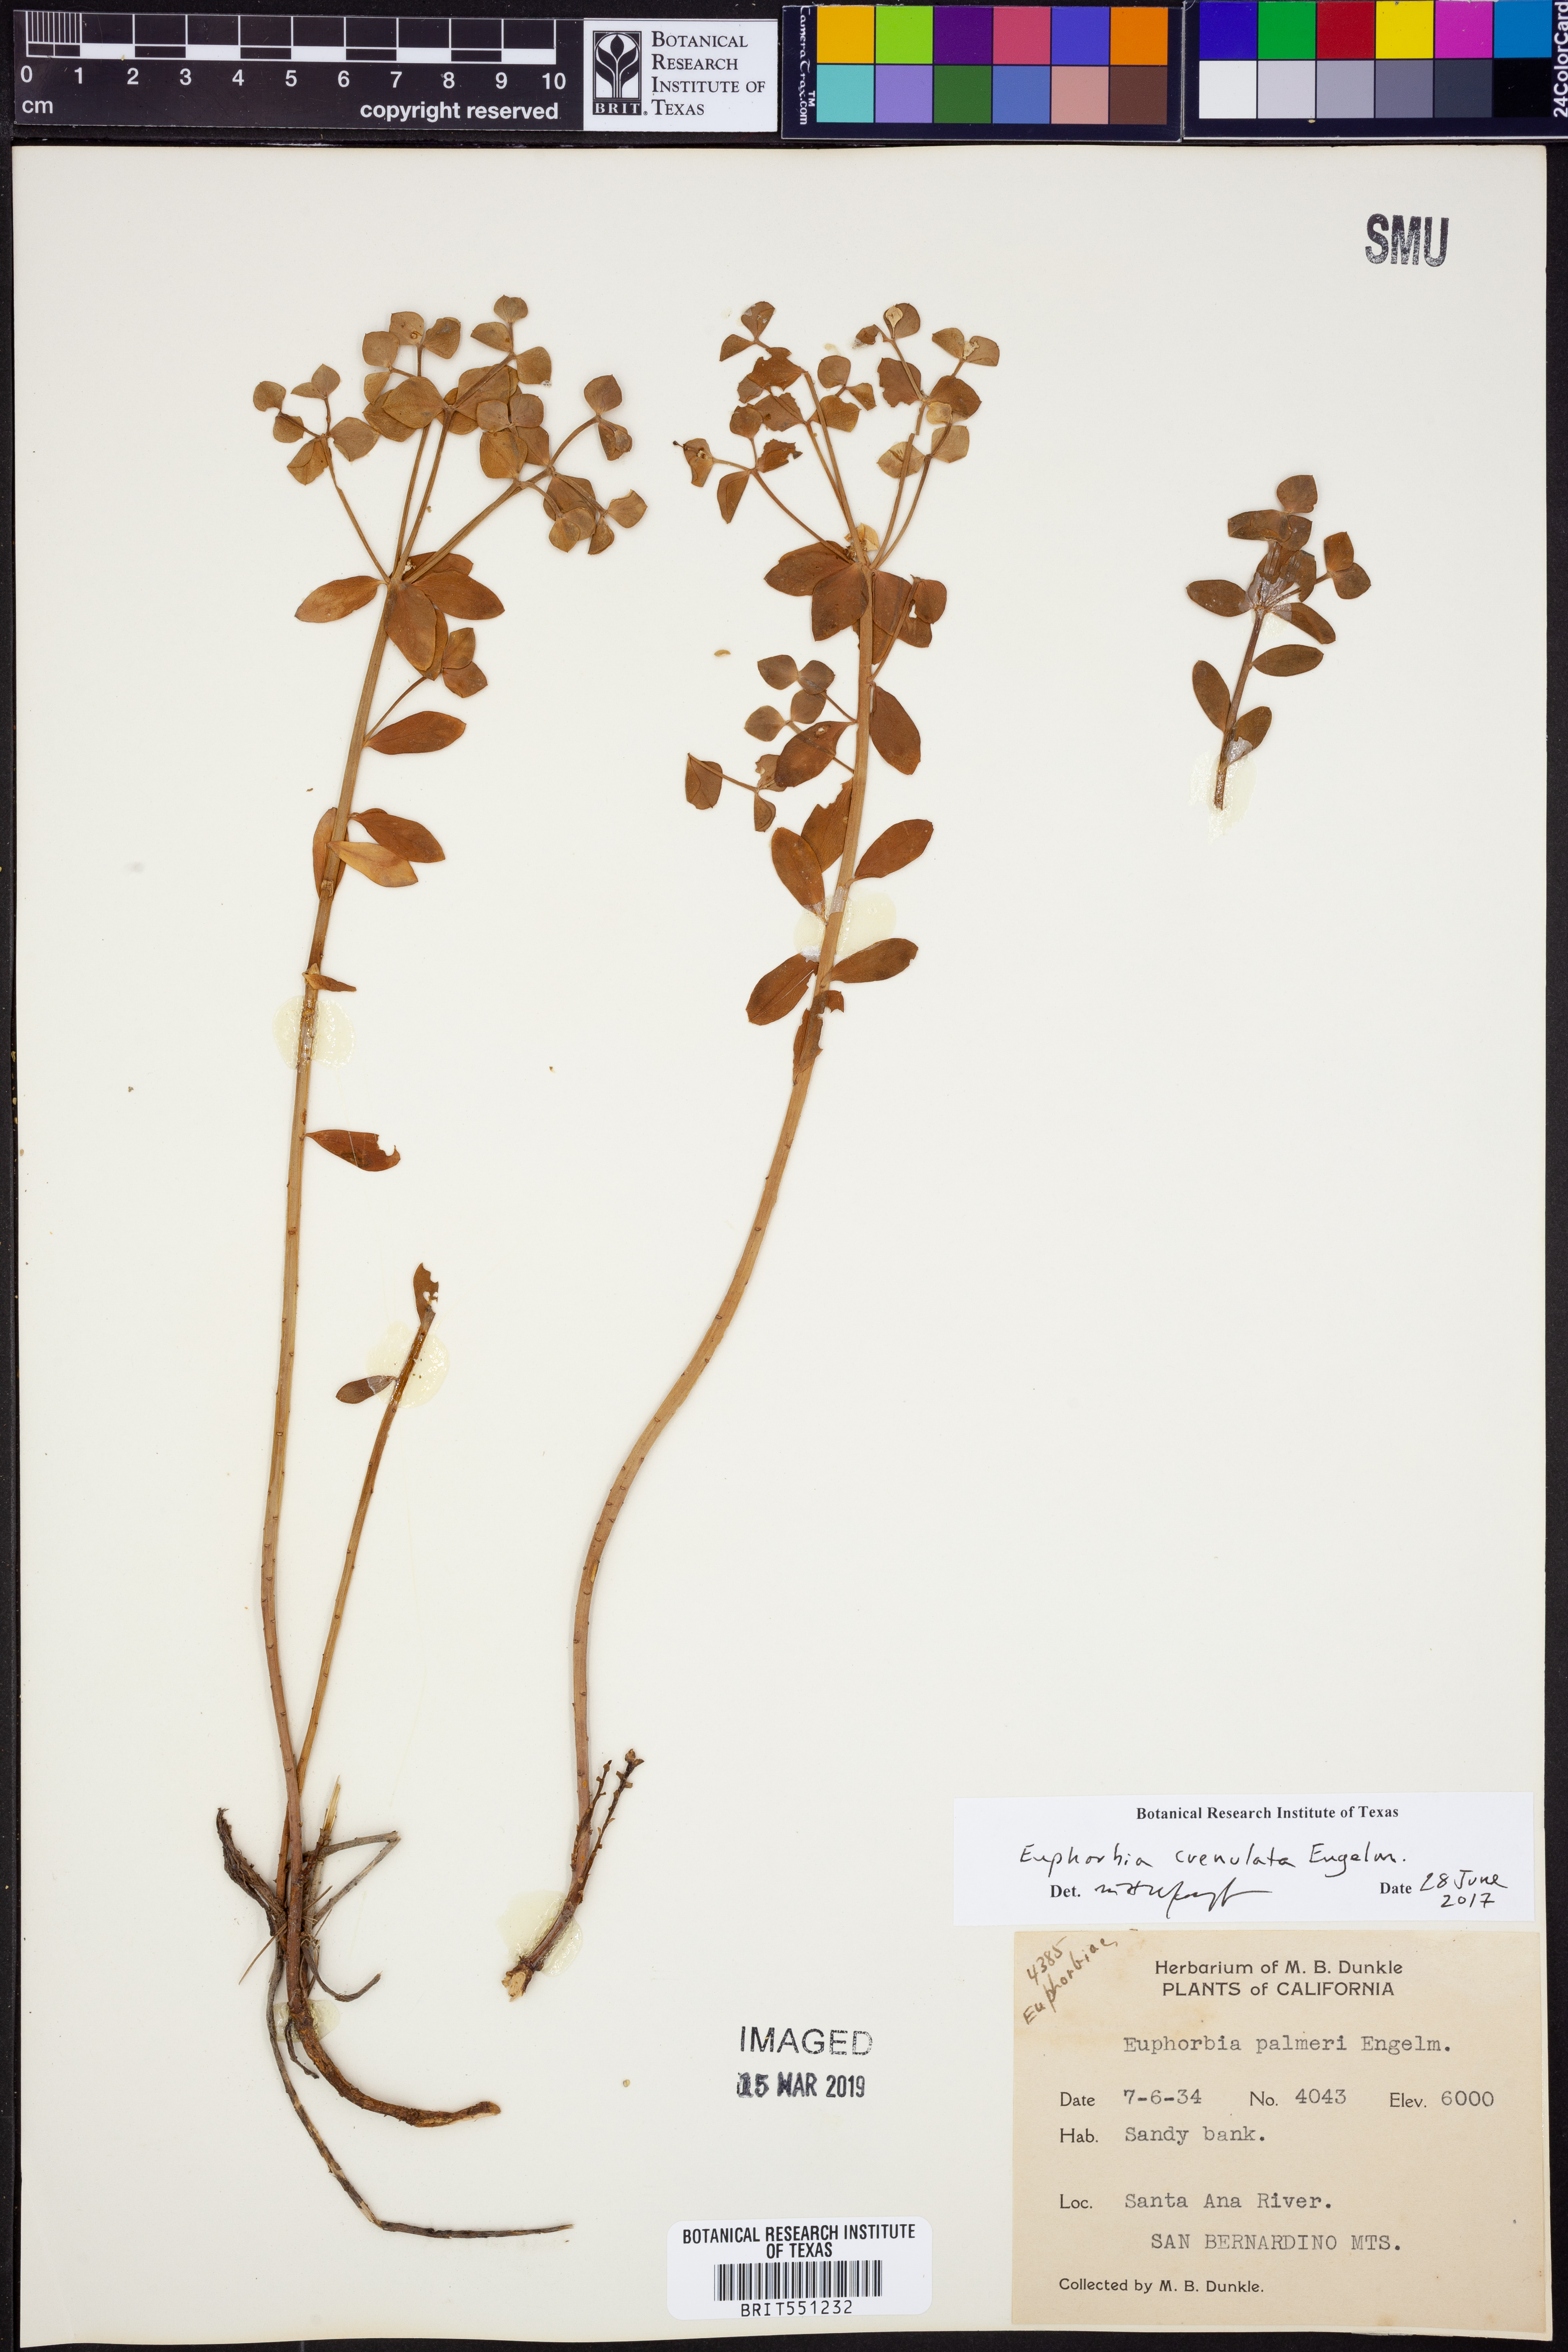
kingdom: Plantae
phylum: Tracheophyta
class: Magnoliopsida
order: Malpighiales
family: Euphorbiaceae
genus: Euphorbia
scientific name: Euphorbia crenulata
